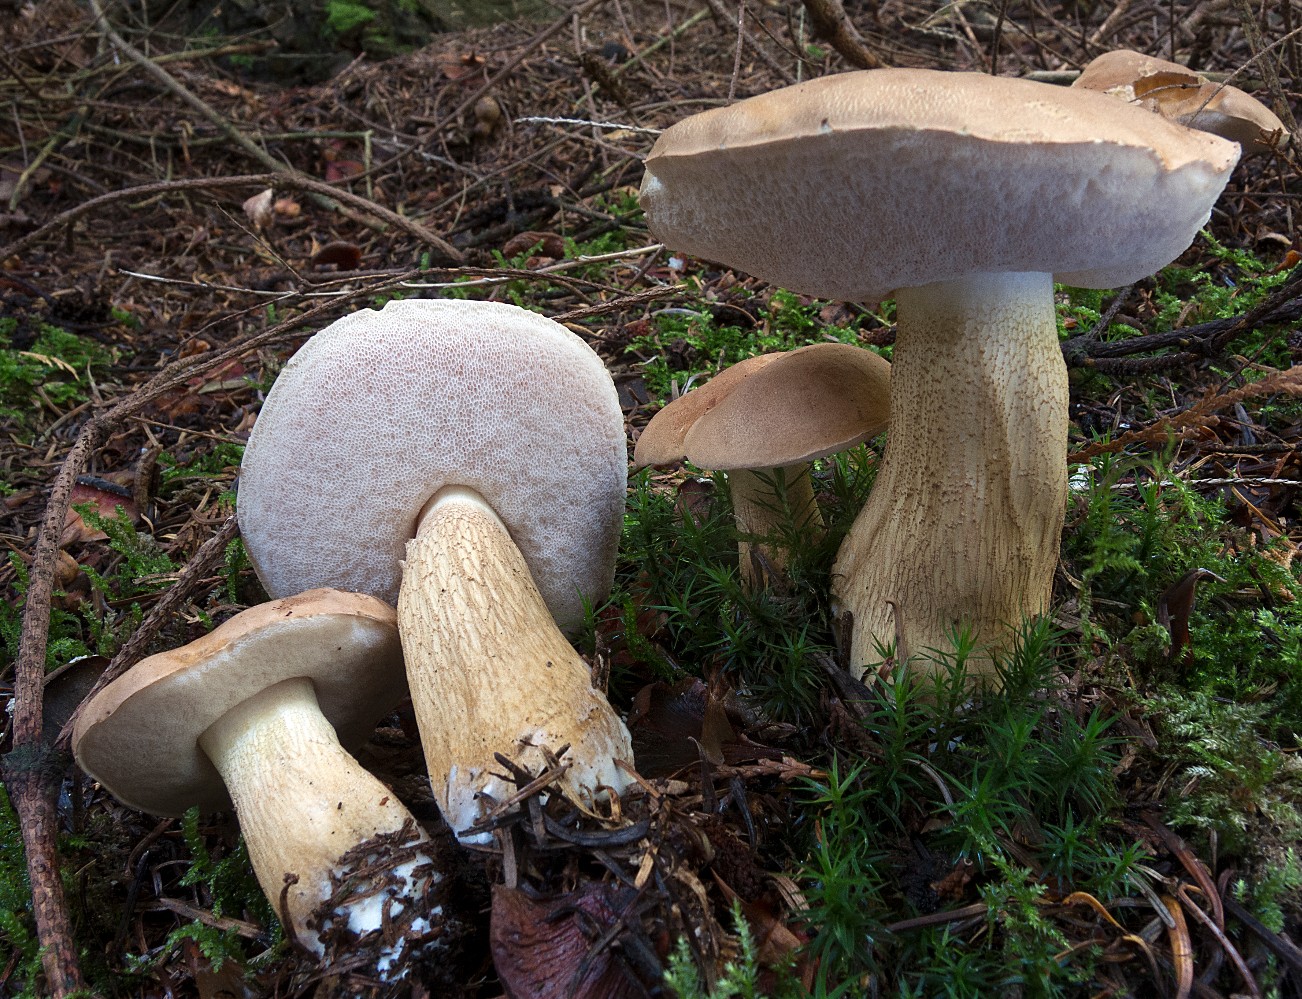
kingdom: Fungi
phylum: Basidiomycota
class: Agaricomycetes
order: Boletales
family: Boletaceae
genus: Tylopilus
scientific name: Tylopilus felleus
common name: galderørhat
